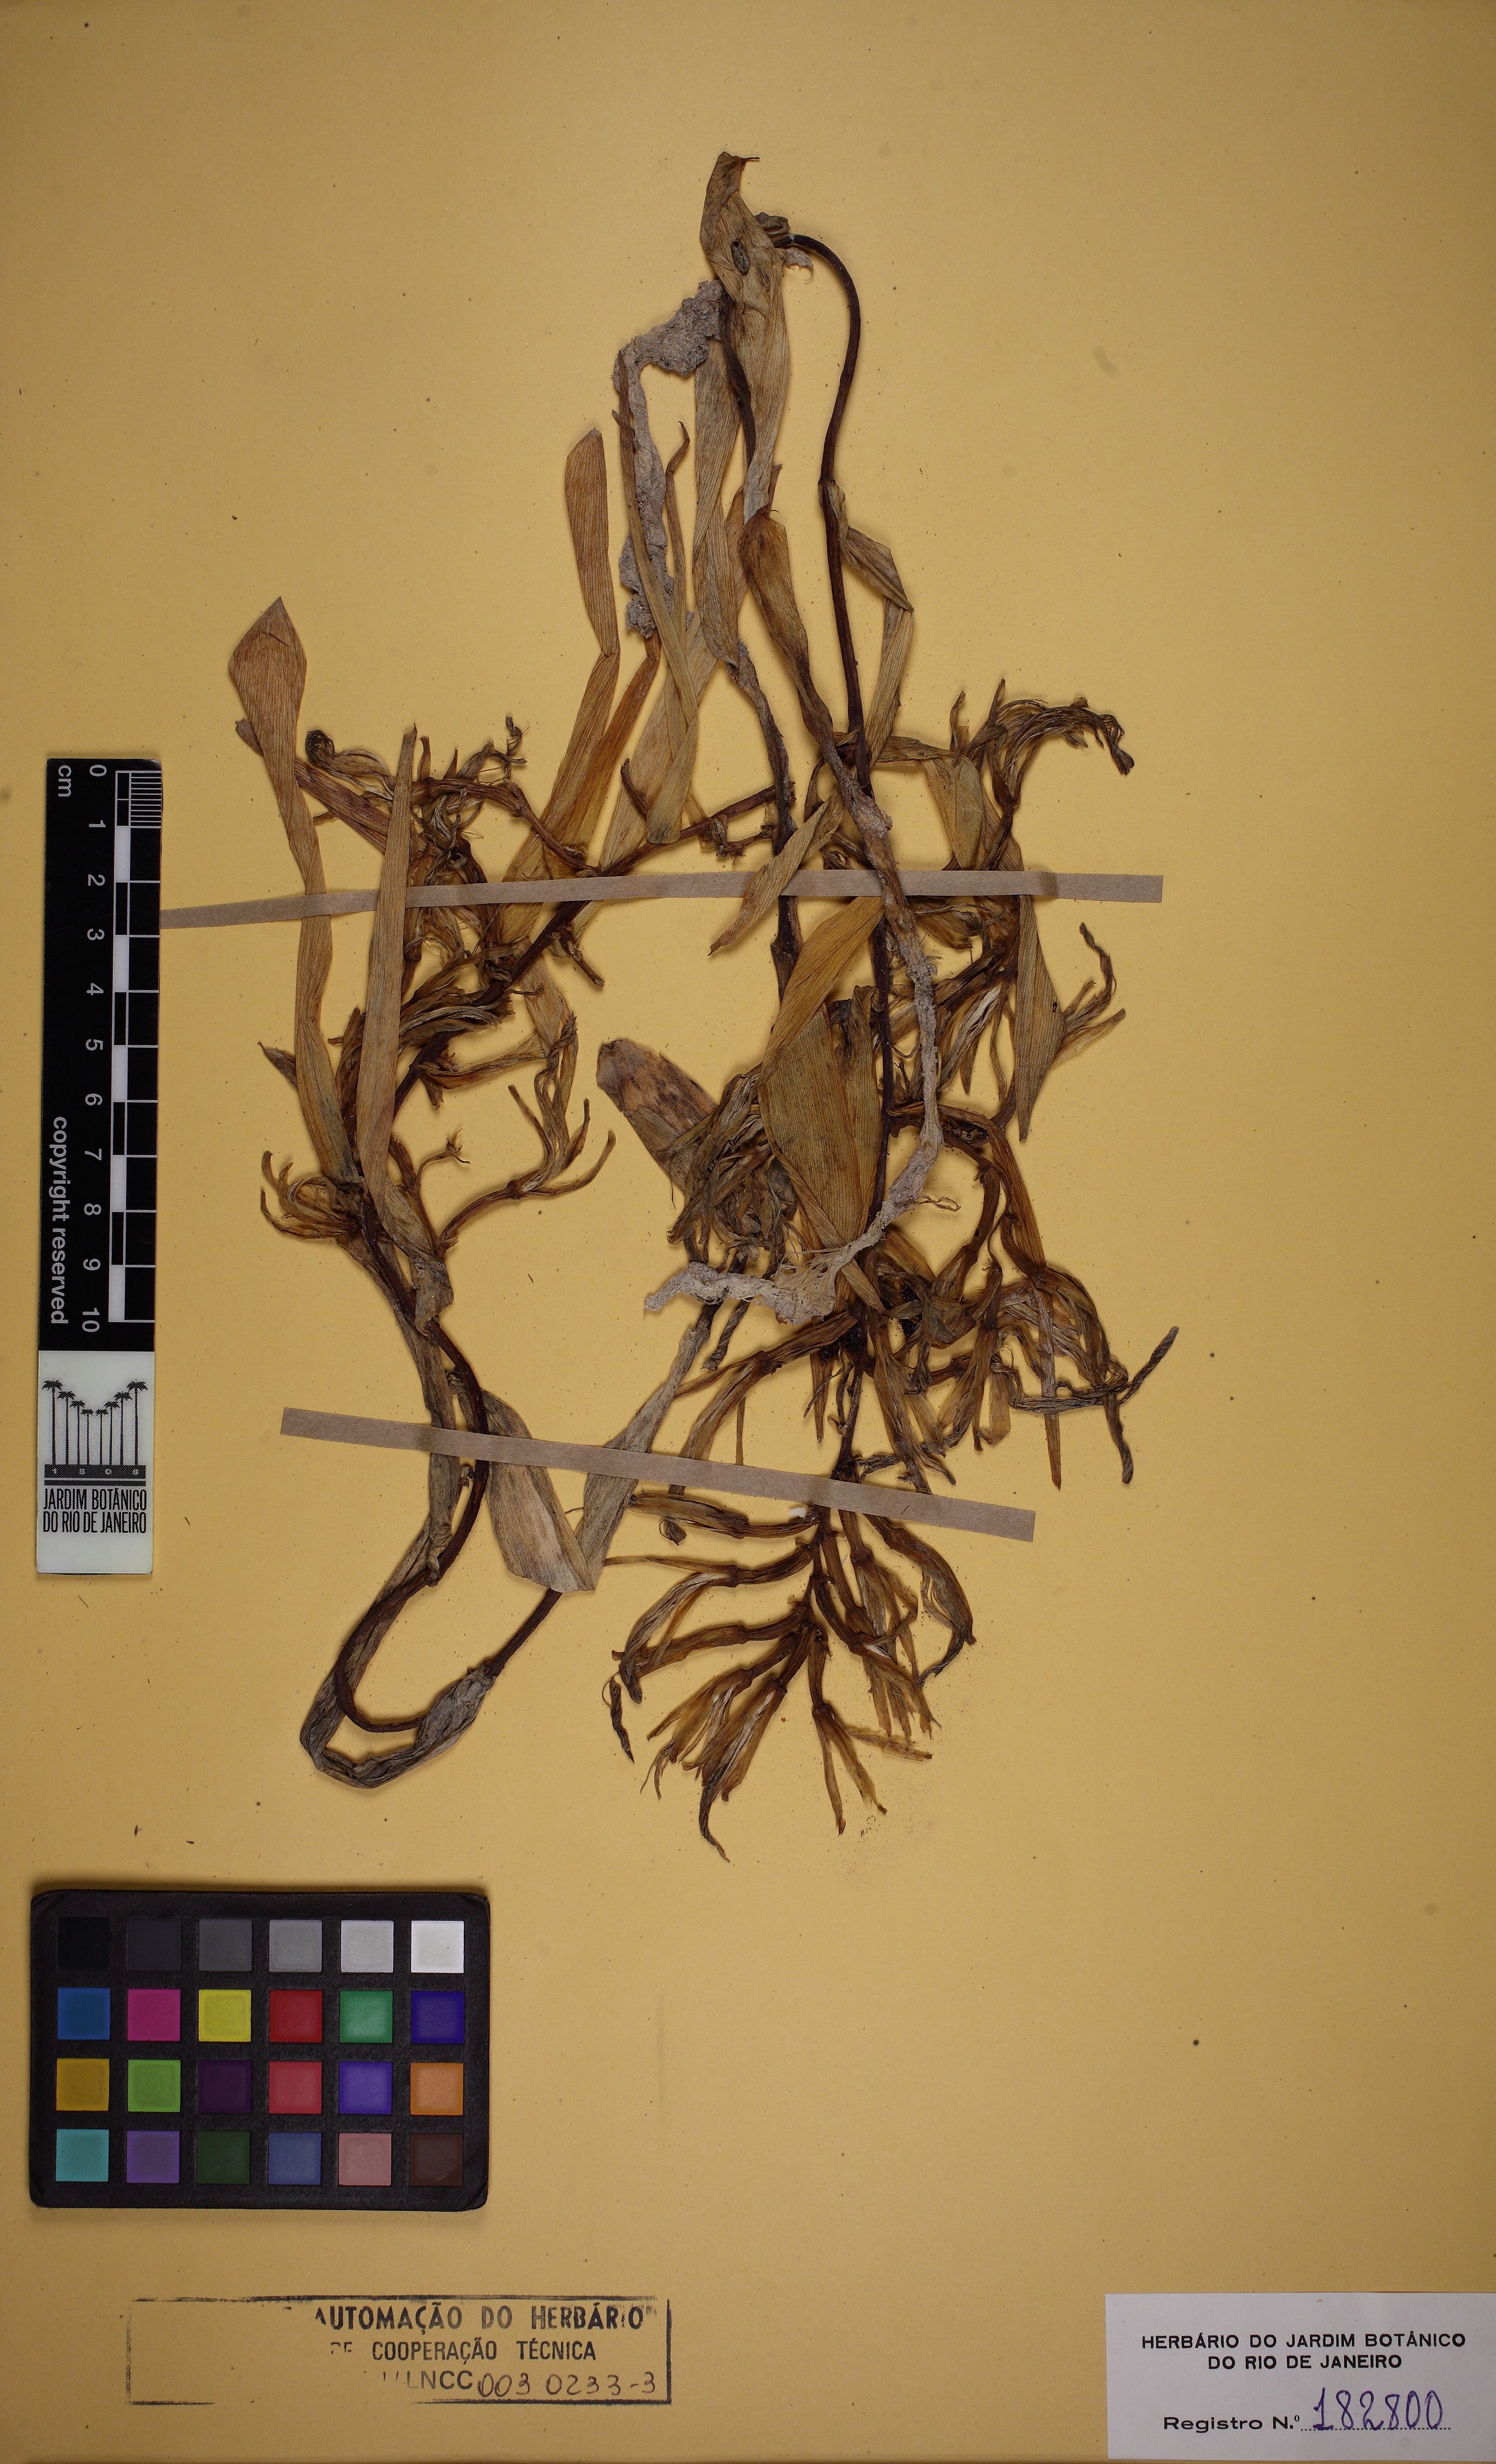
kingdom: Plantae
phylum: Tracheophyta
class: Liliopsida
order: Poales
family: Bromeliaceae
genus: Billbergia
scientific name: Billbergia vittata
